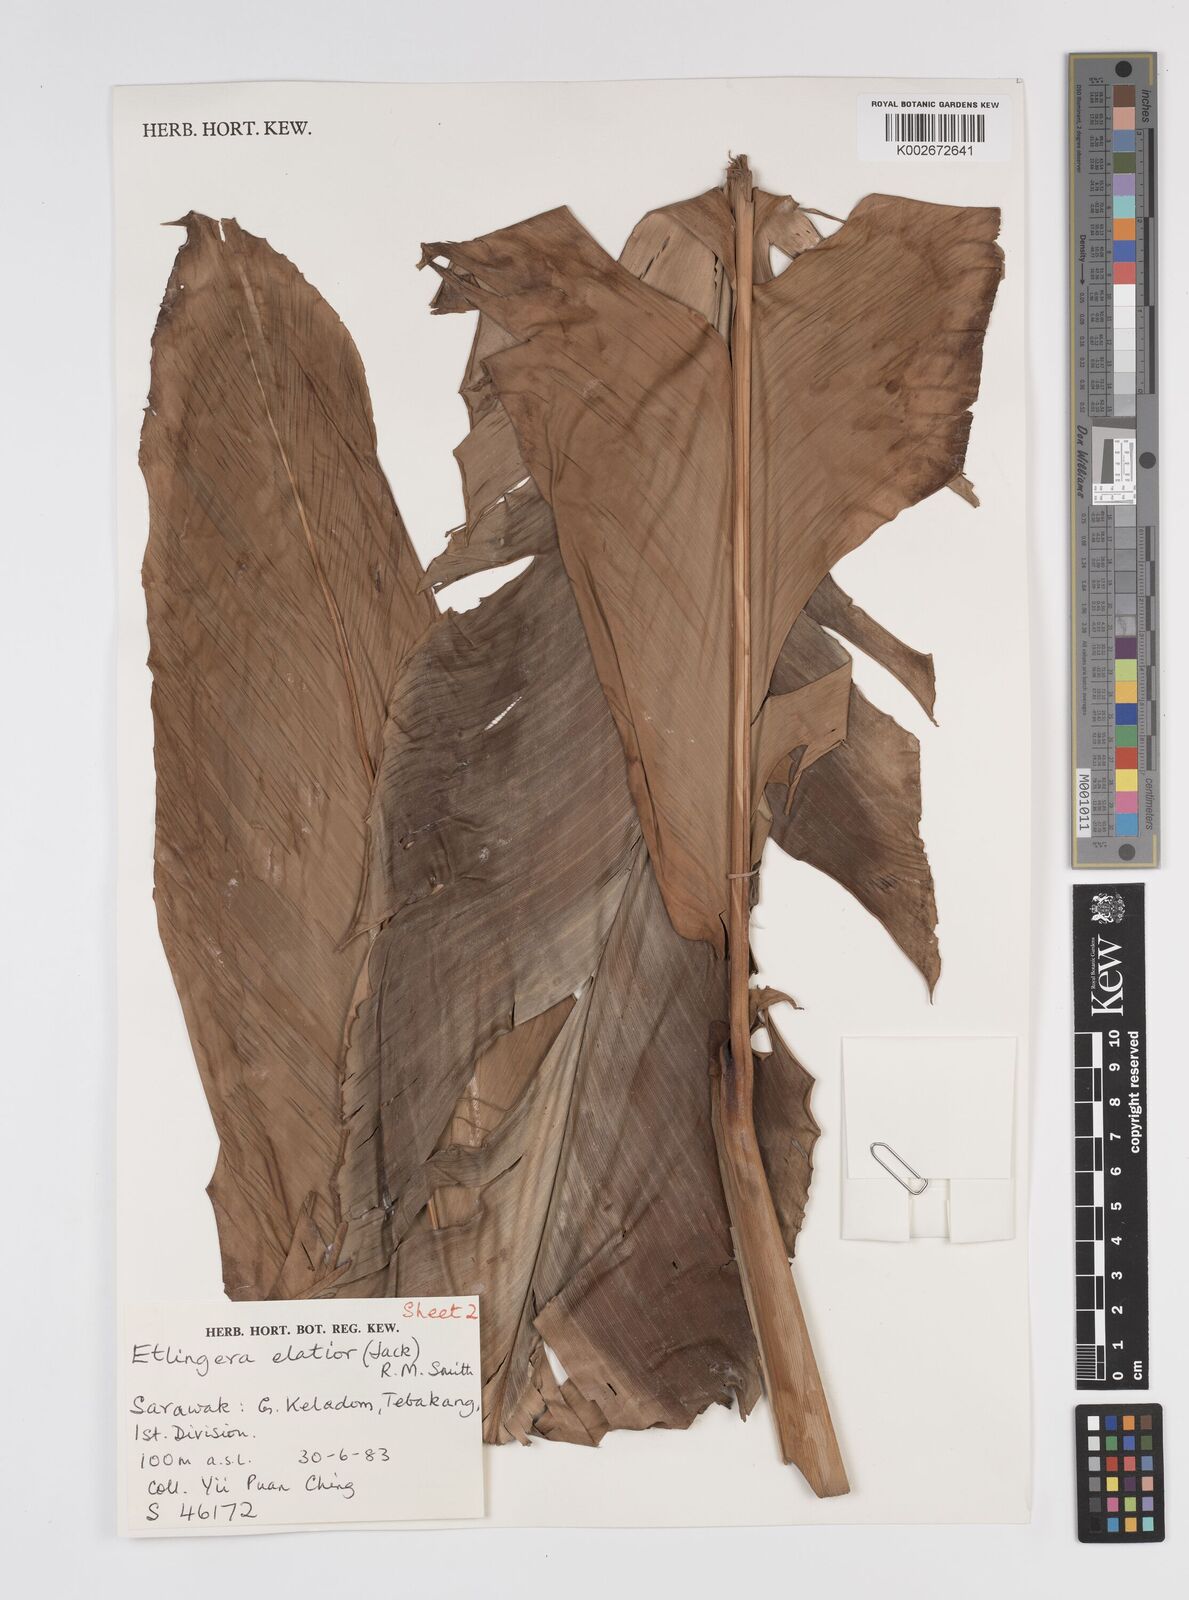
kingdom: Plantae
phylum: Tracheophyta
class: Liliopsida
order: Zingiberales
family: Zingiberaceae
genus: Etlingera
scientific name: Etlingera elatior
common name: Philippine waxflower
